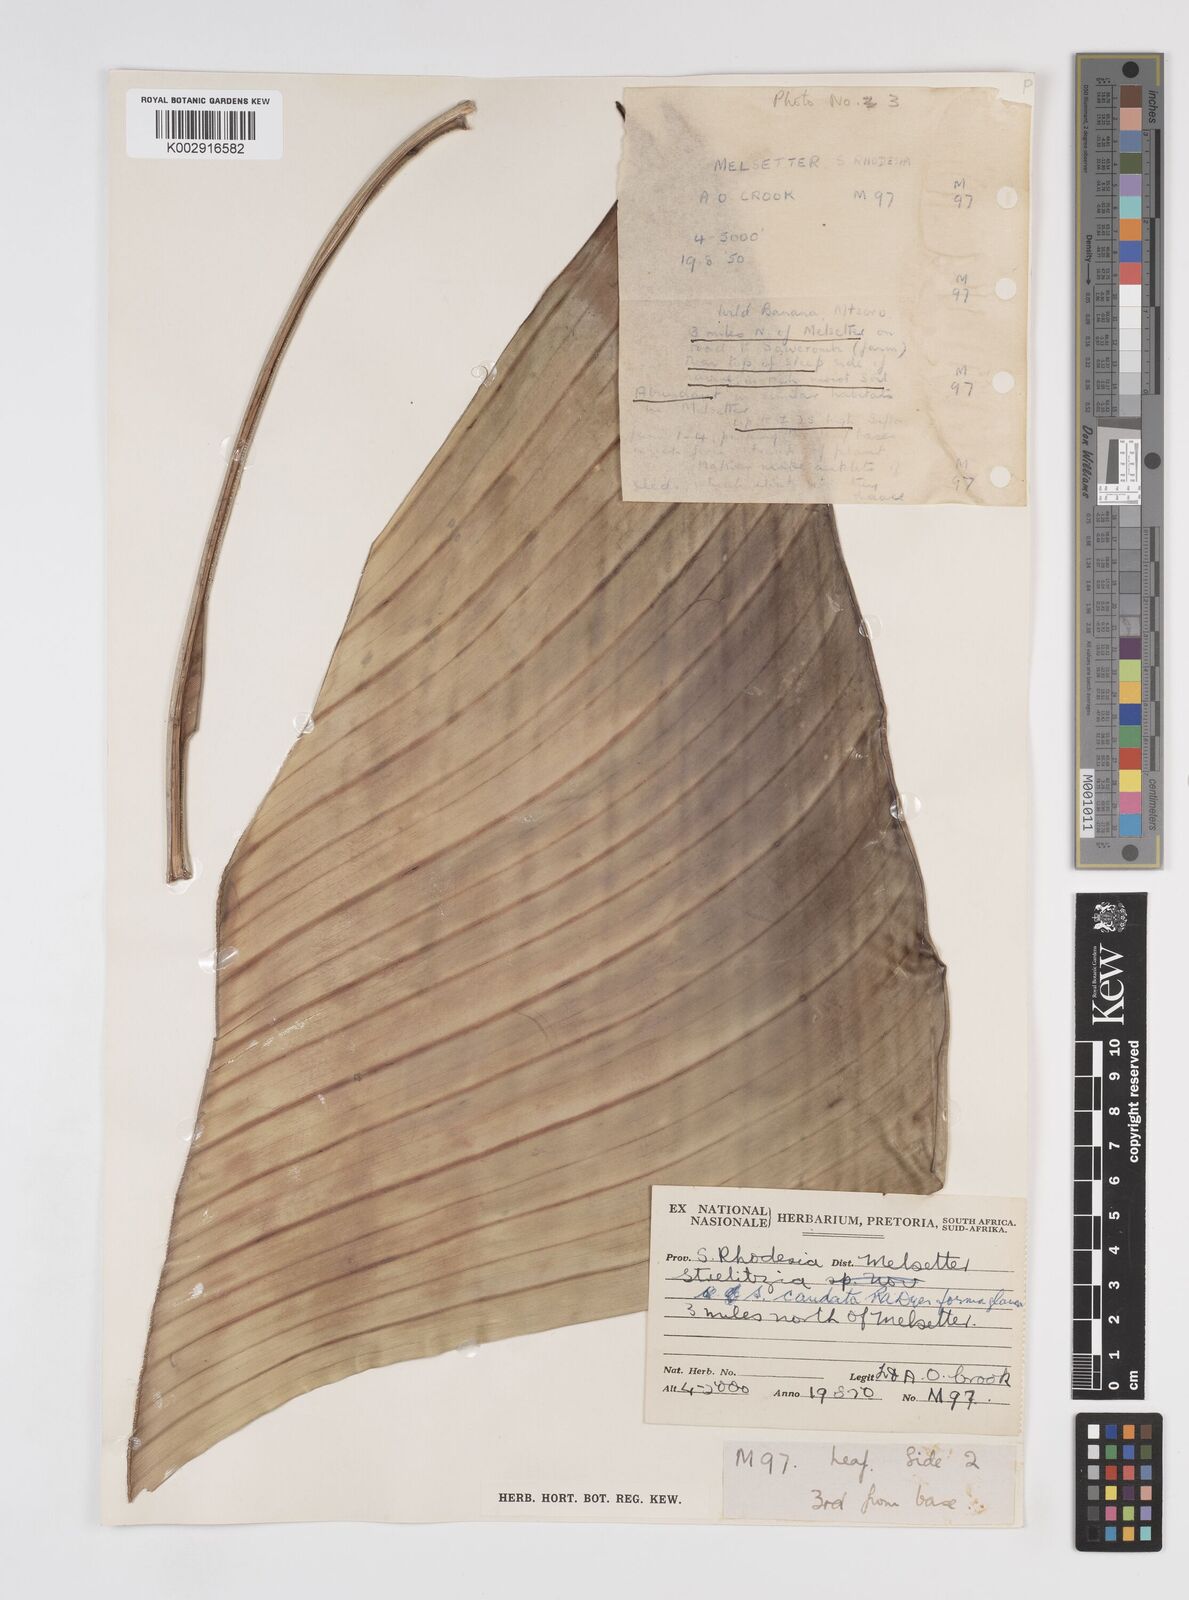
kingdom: Plantae
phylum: Tracheophyta
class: Liliopsida
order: Zingiberales
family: Strelitziaceae
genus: Strelitzia
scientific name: Strelitzia caudata
